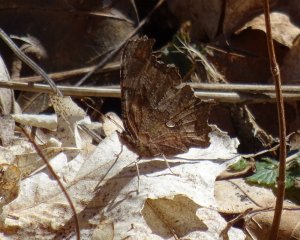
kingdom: Animalia
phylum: Arthropoda
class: Insecta
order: Lepidoptera
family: Nymphalidae
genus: Polygonia
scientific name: Polygonia comma
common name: Eastern Comma
